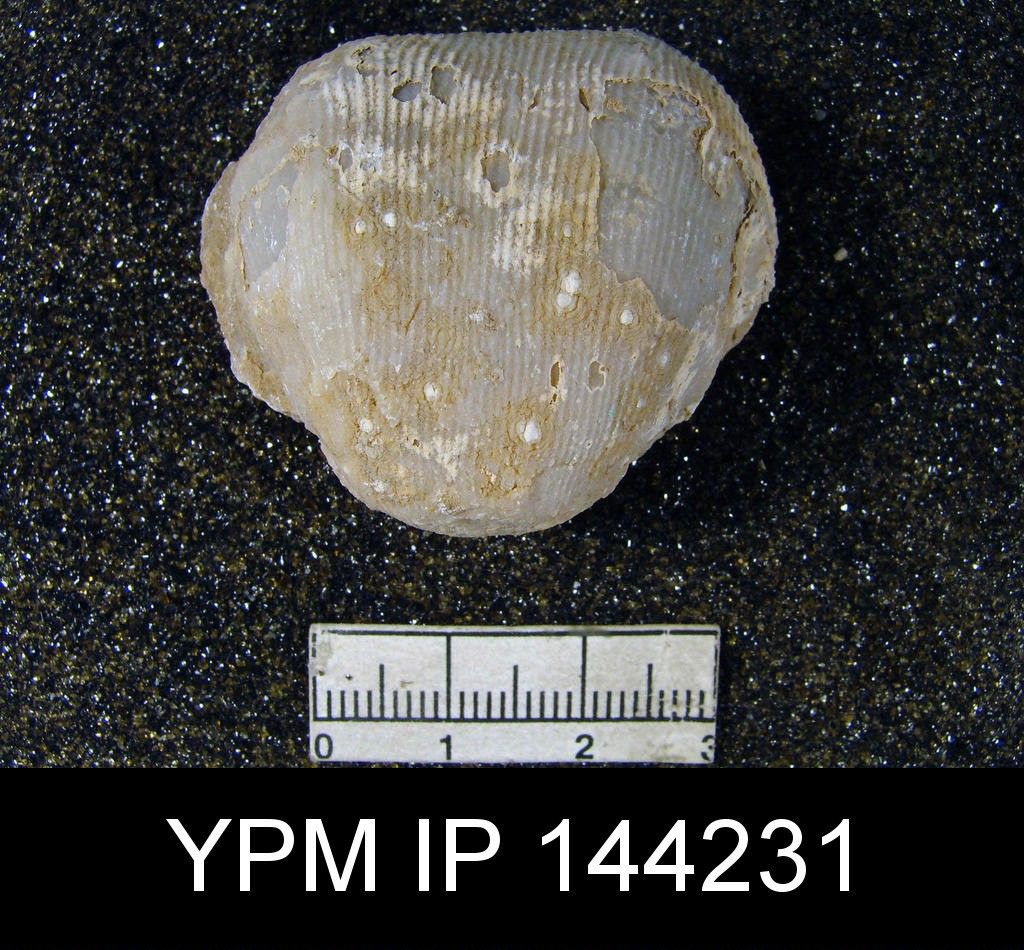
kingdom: Animalia
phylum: Brachiopoda
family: Productidae
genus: Productus
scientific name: Productus lineatus
